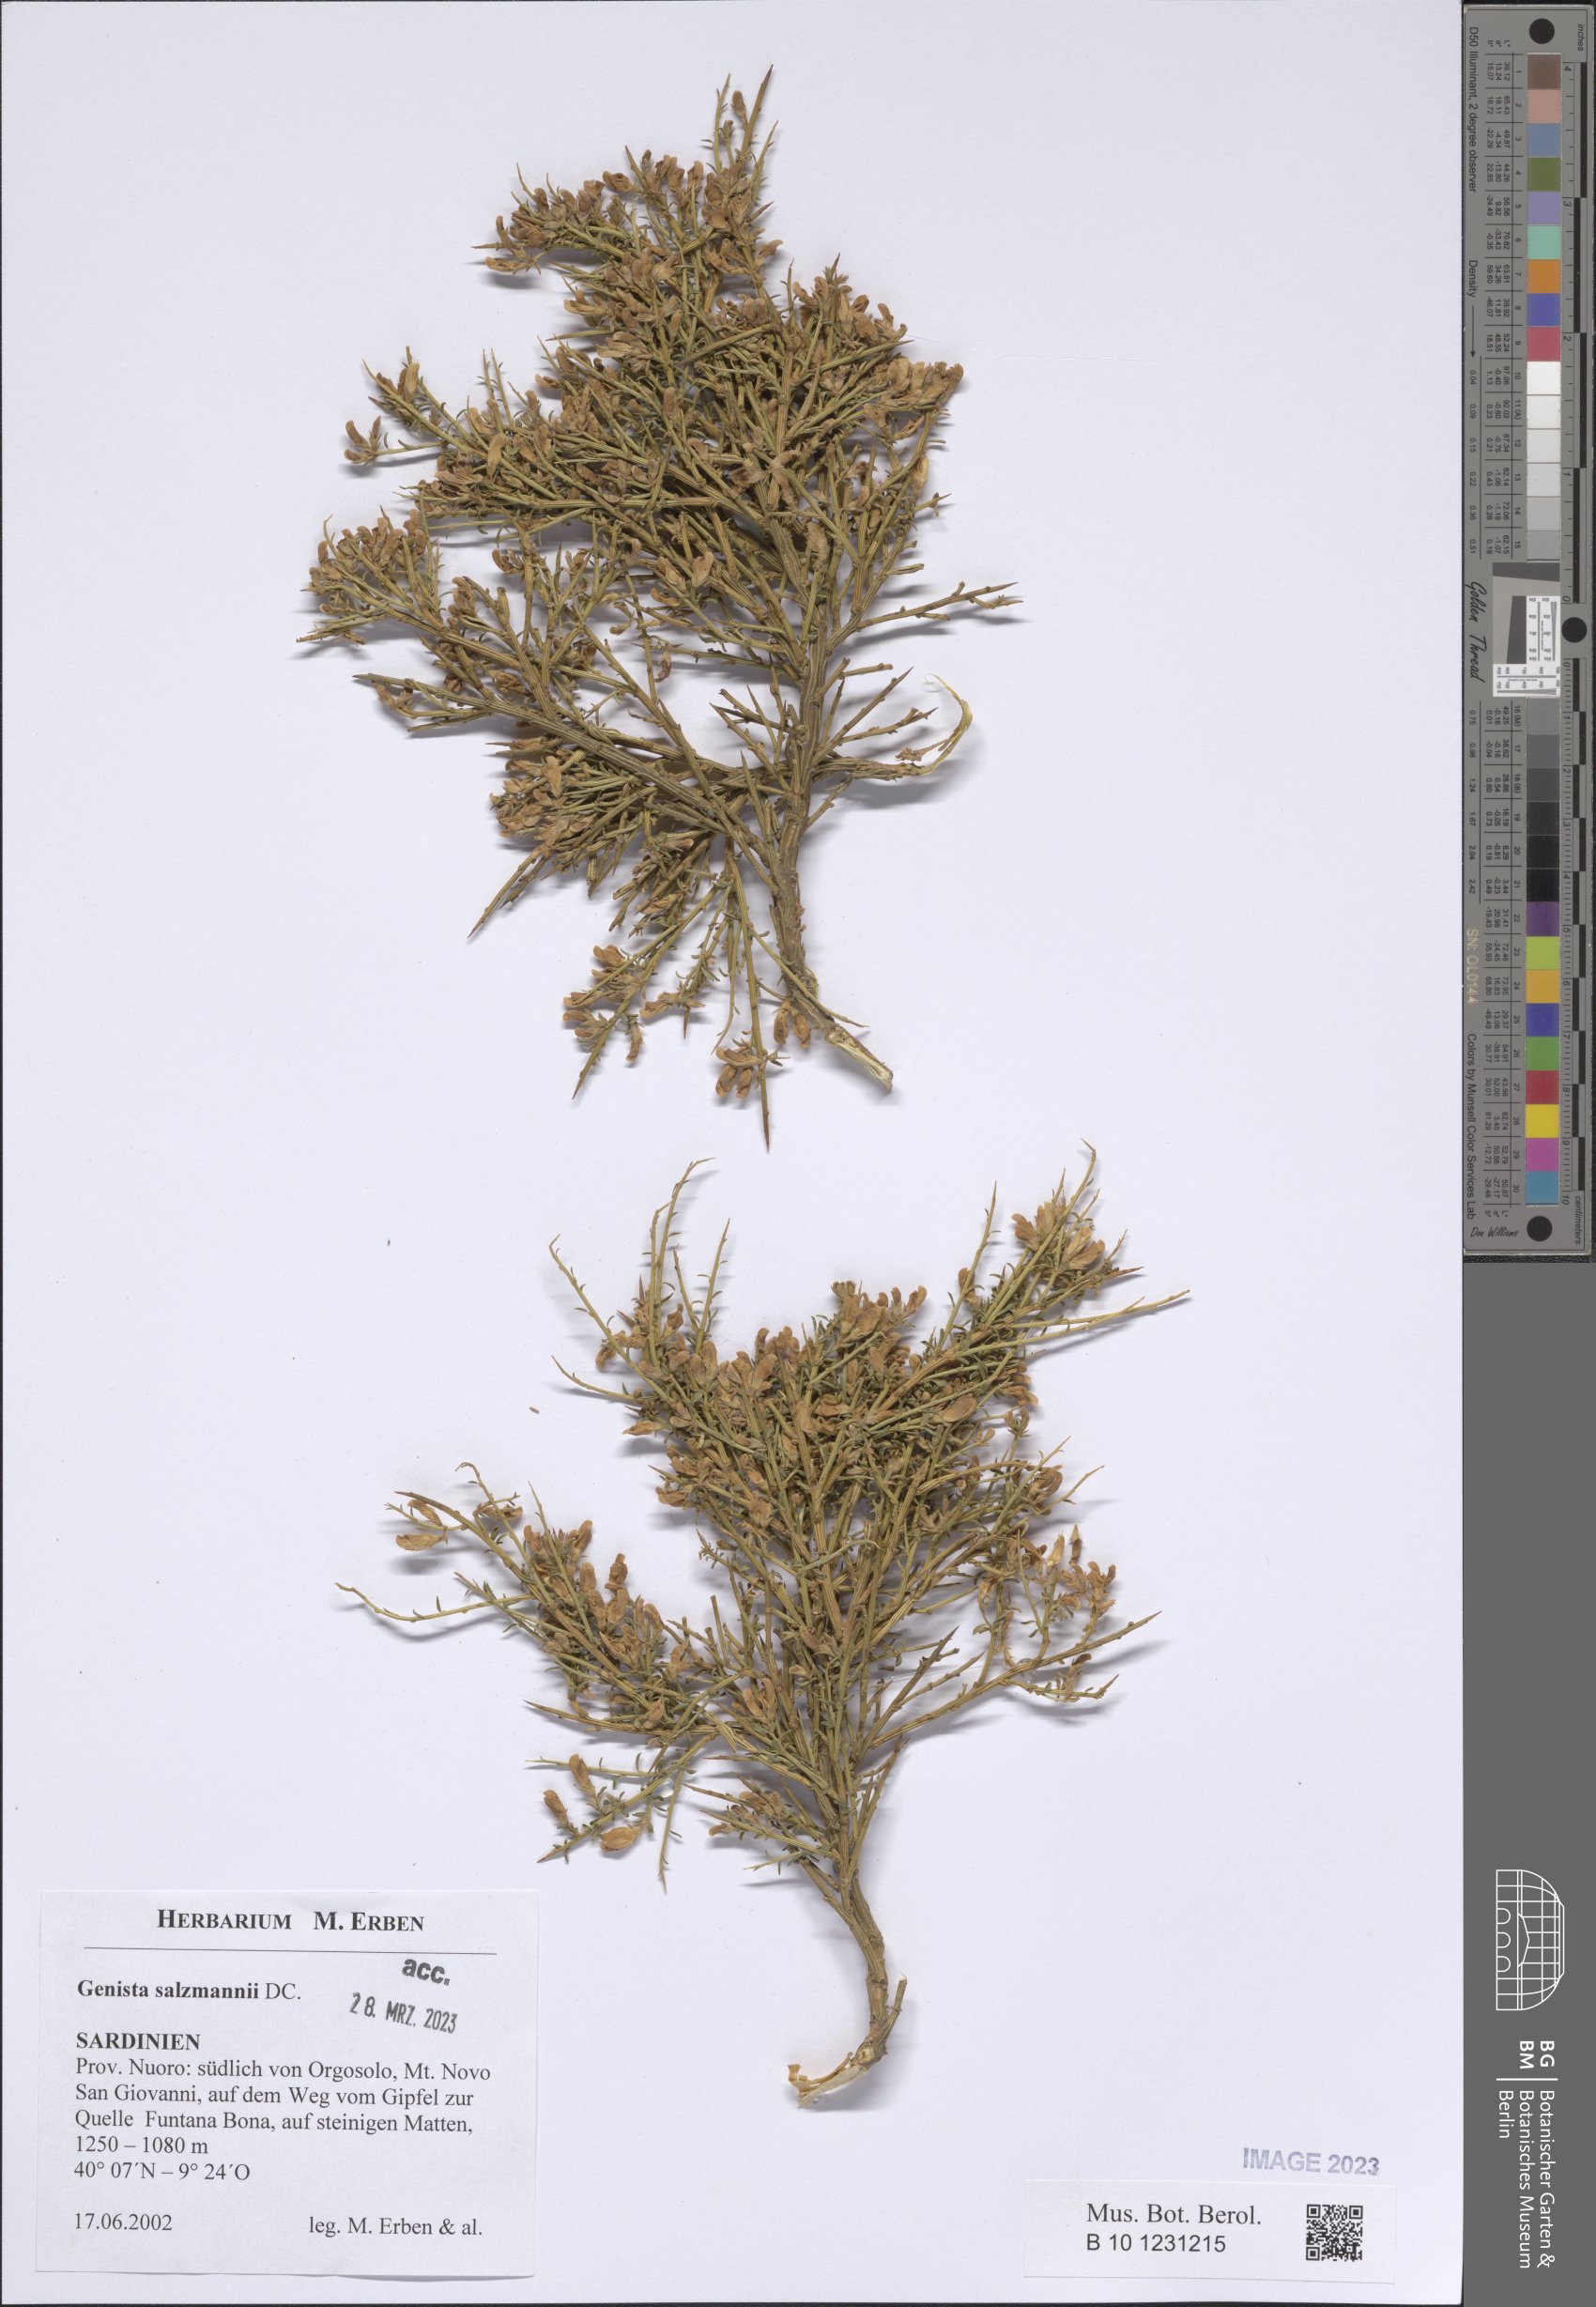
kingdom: Plantae
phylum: Tracheophyta
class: Magnoliopsida
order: Fabales
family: Fabaceae
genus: Genista
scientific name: Genista salzmannii
